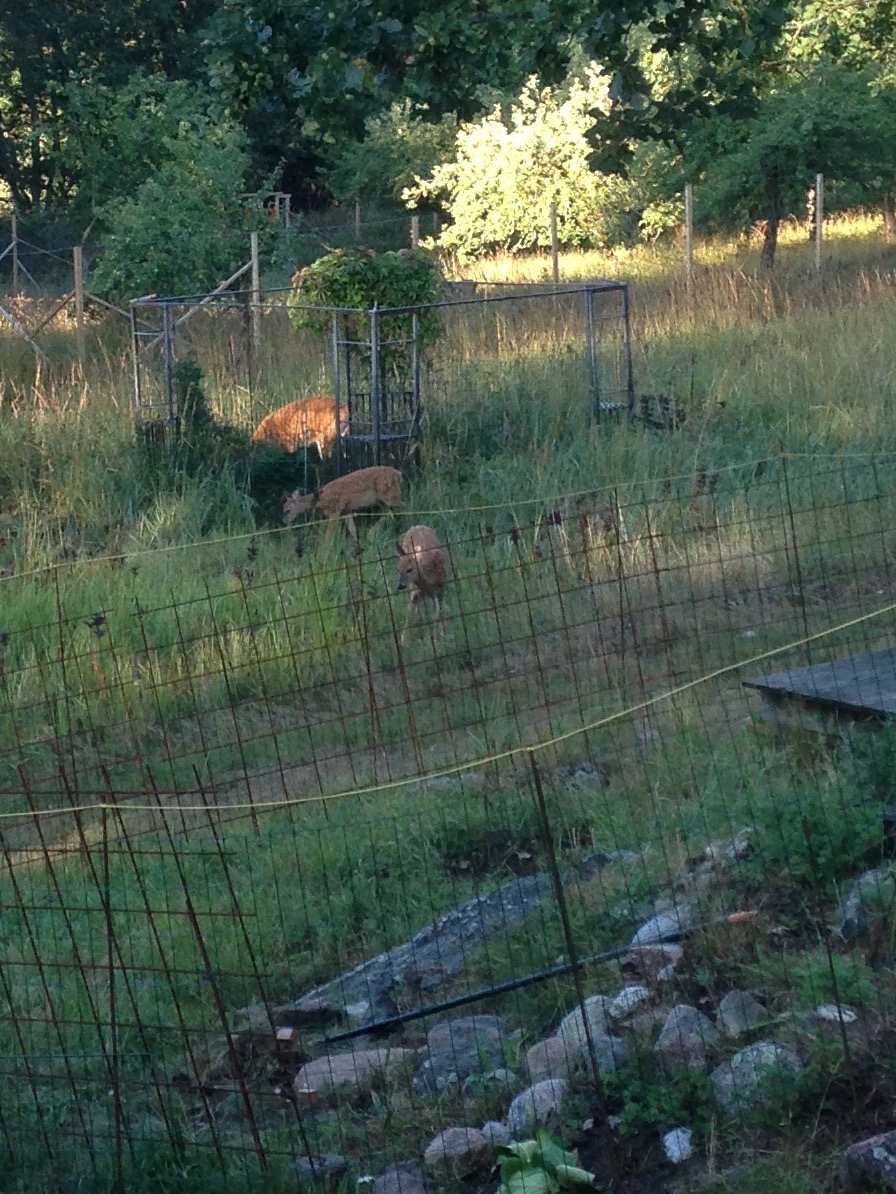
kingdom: Animalia
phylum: Chordata
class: Mammalia
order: Artiodactyla
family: Cervidae
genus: Odocoileus
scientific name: Odocoileus virginianus
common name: White-tailed deer
